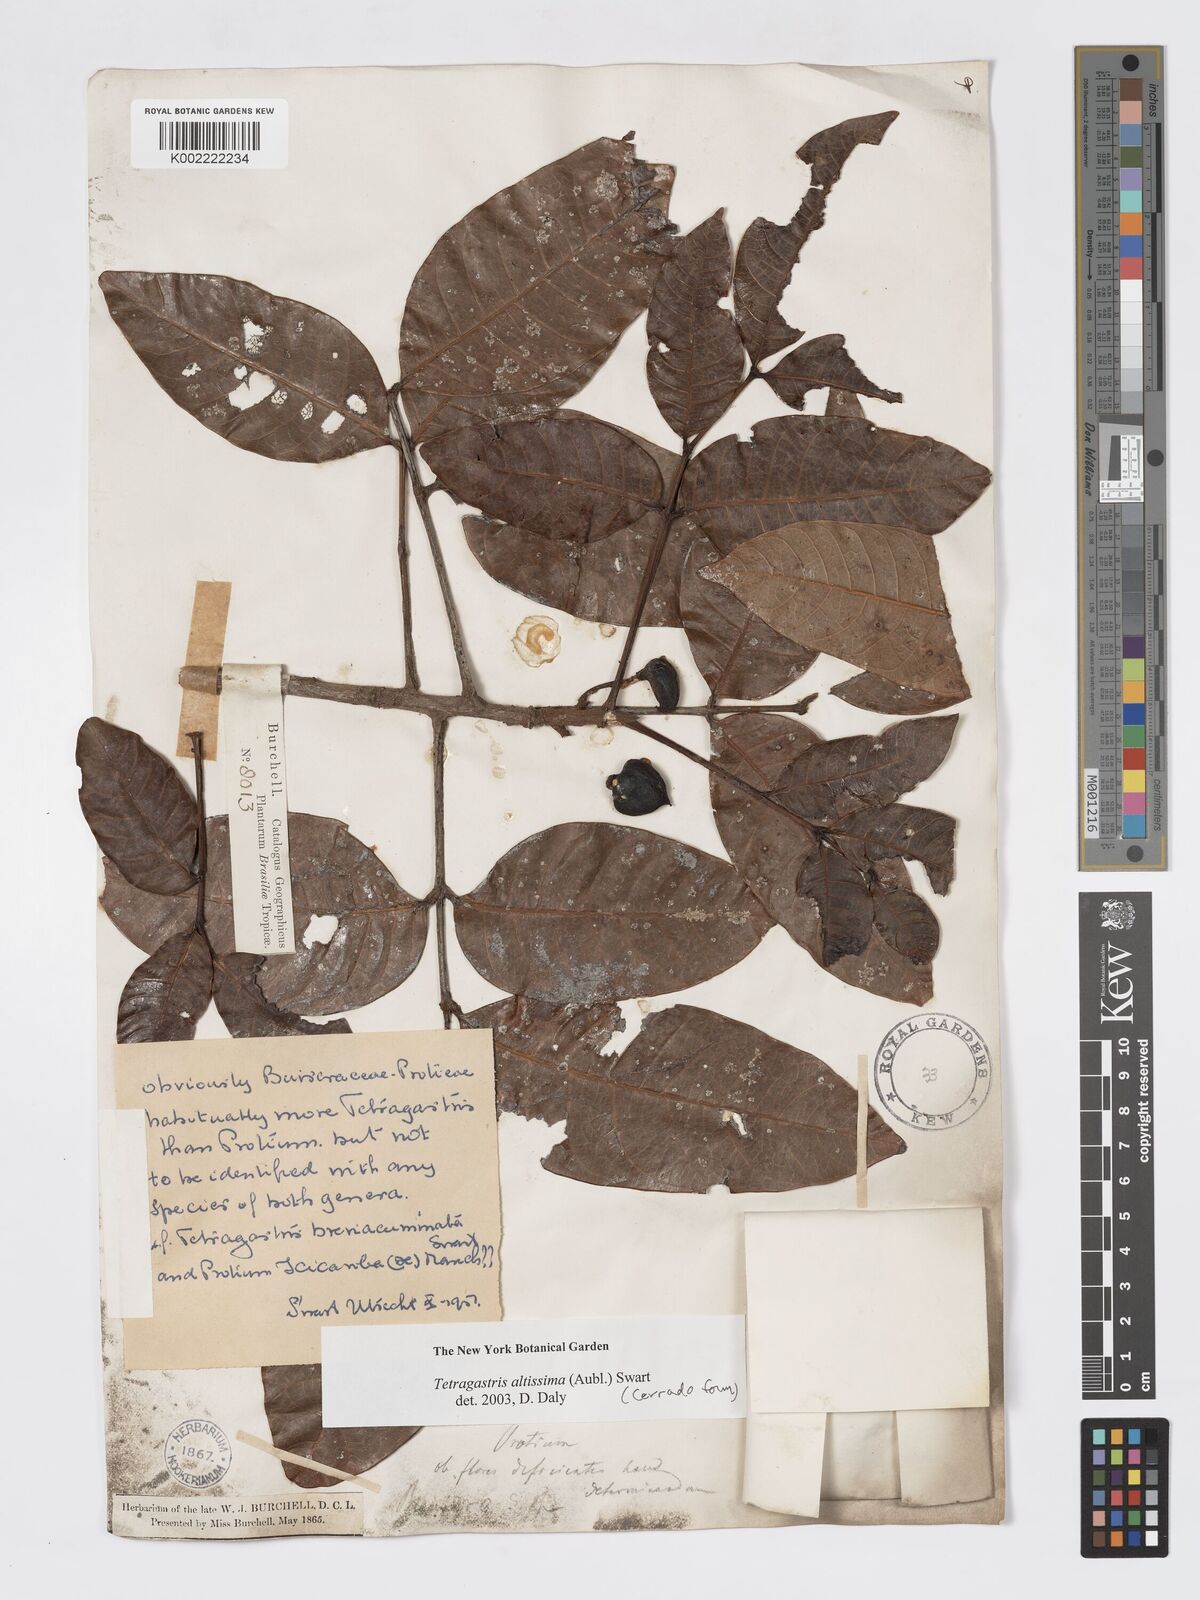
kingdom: Plantae
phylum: Tracheophyta
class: Magnoliopsida
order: Sapindales
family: Burseraceae
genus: Tetragastris
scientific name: Tetragastris altissima
